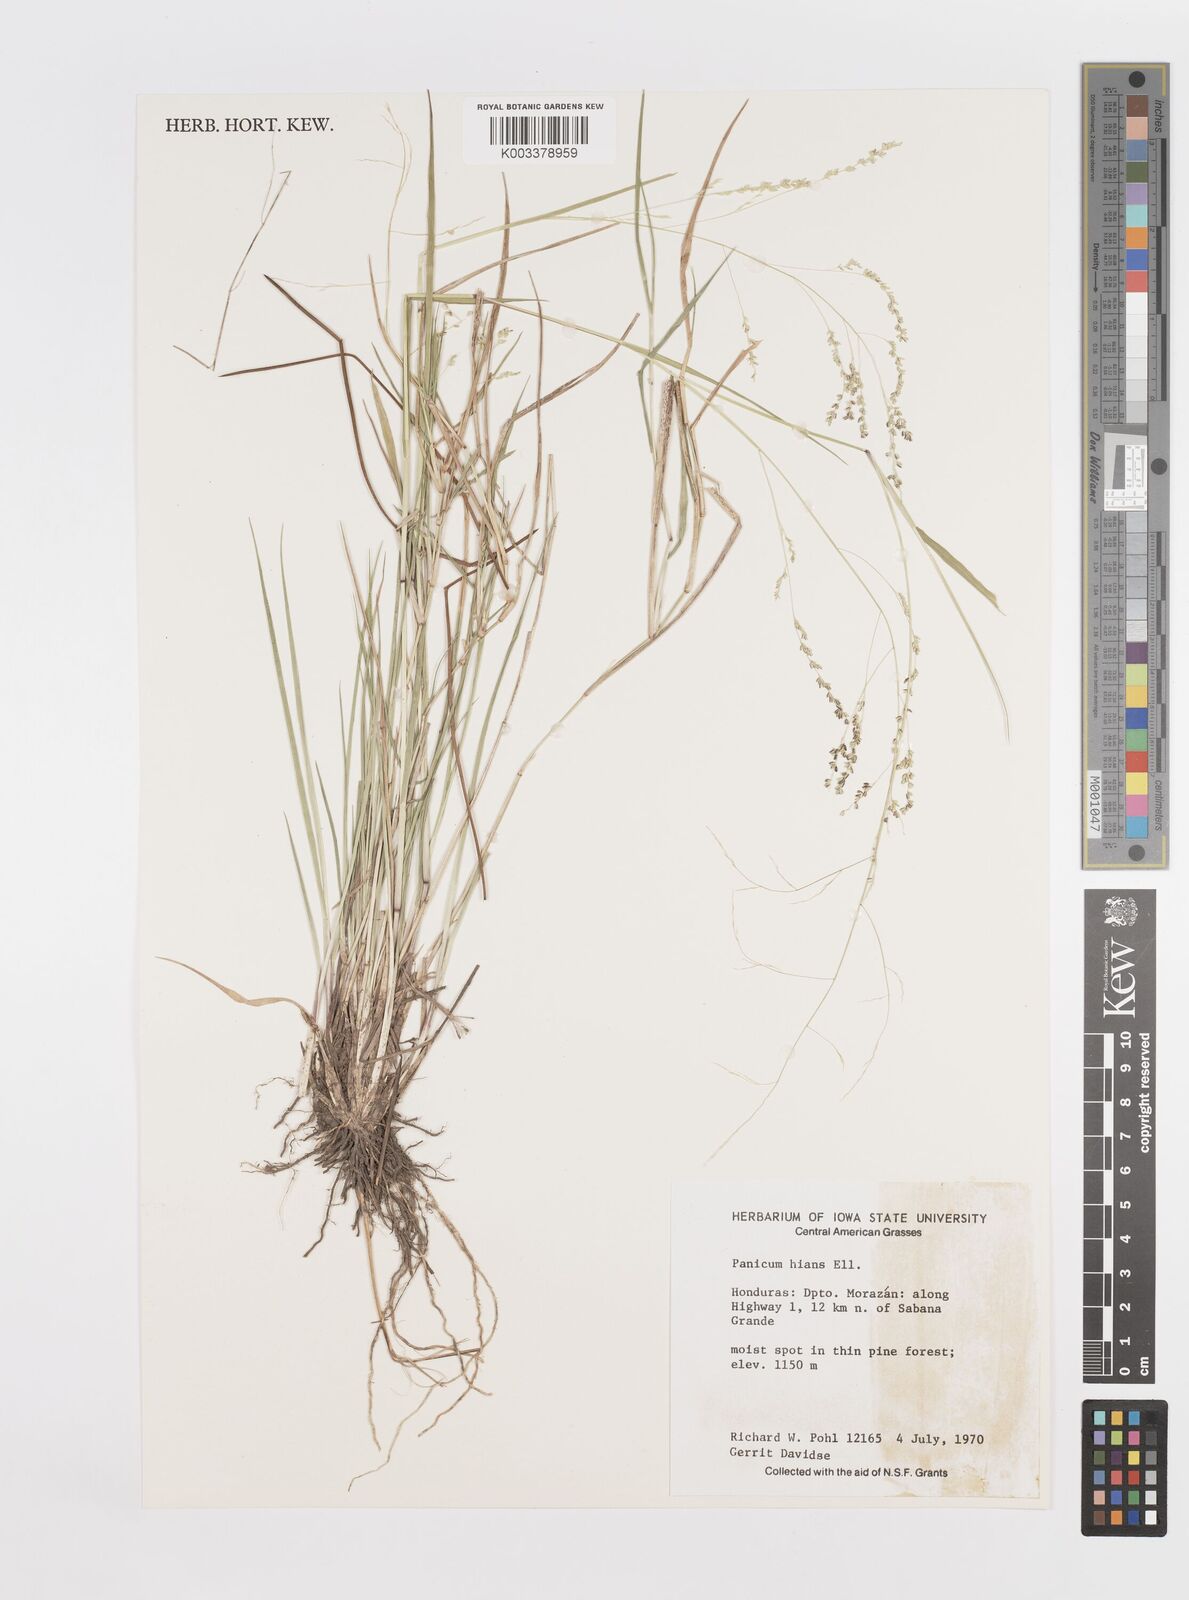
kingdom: Plantae
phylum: Tracheophyta
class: Liliopsida
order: Poales
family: Poaceae
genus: Steinchisma
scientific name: Steinchisma hians
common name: Gaping panic grass
